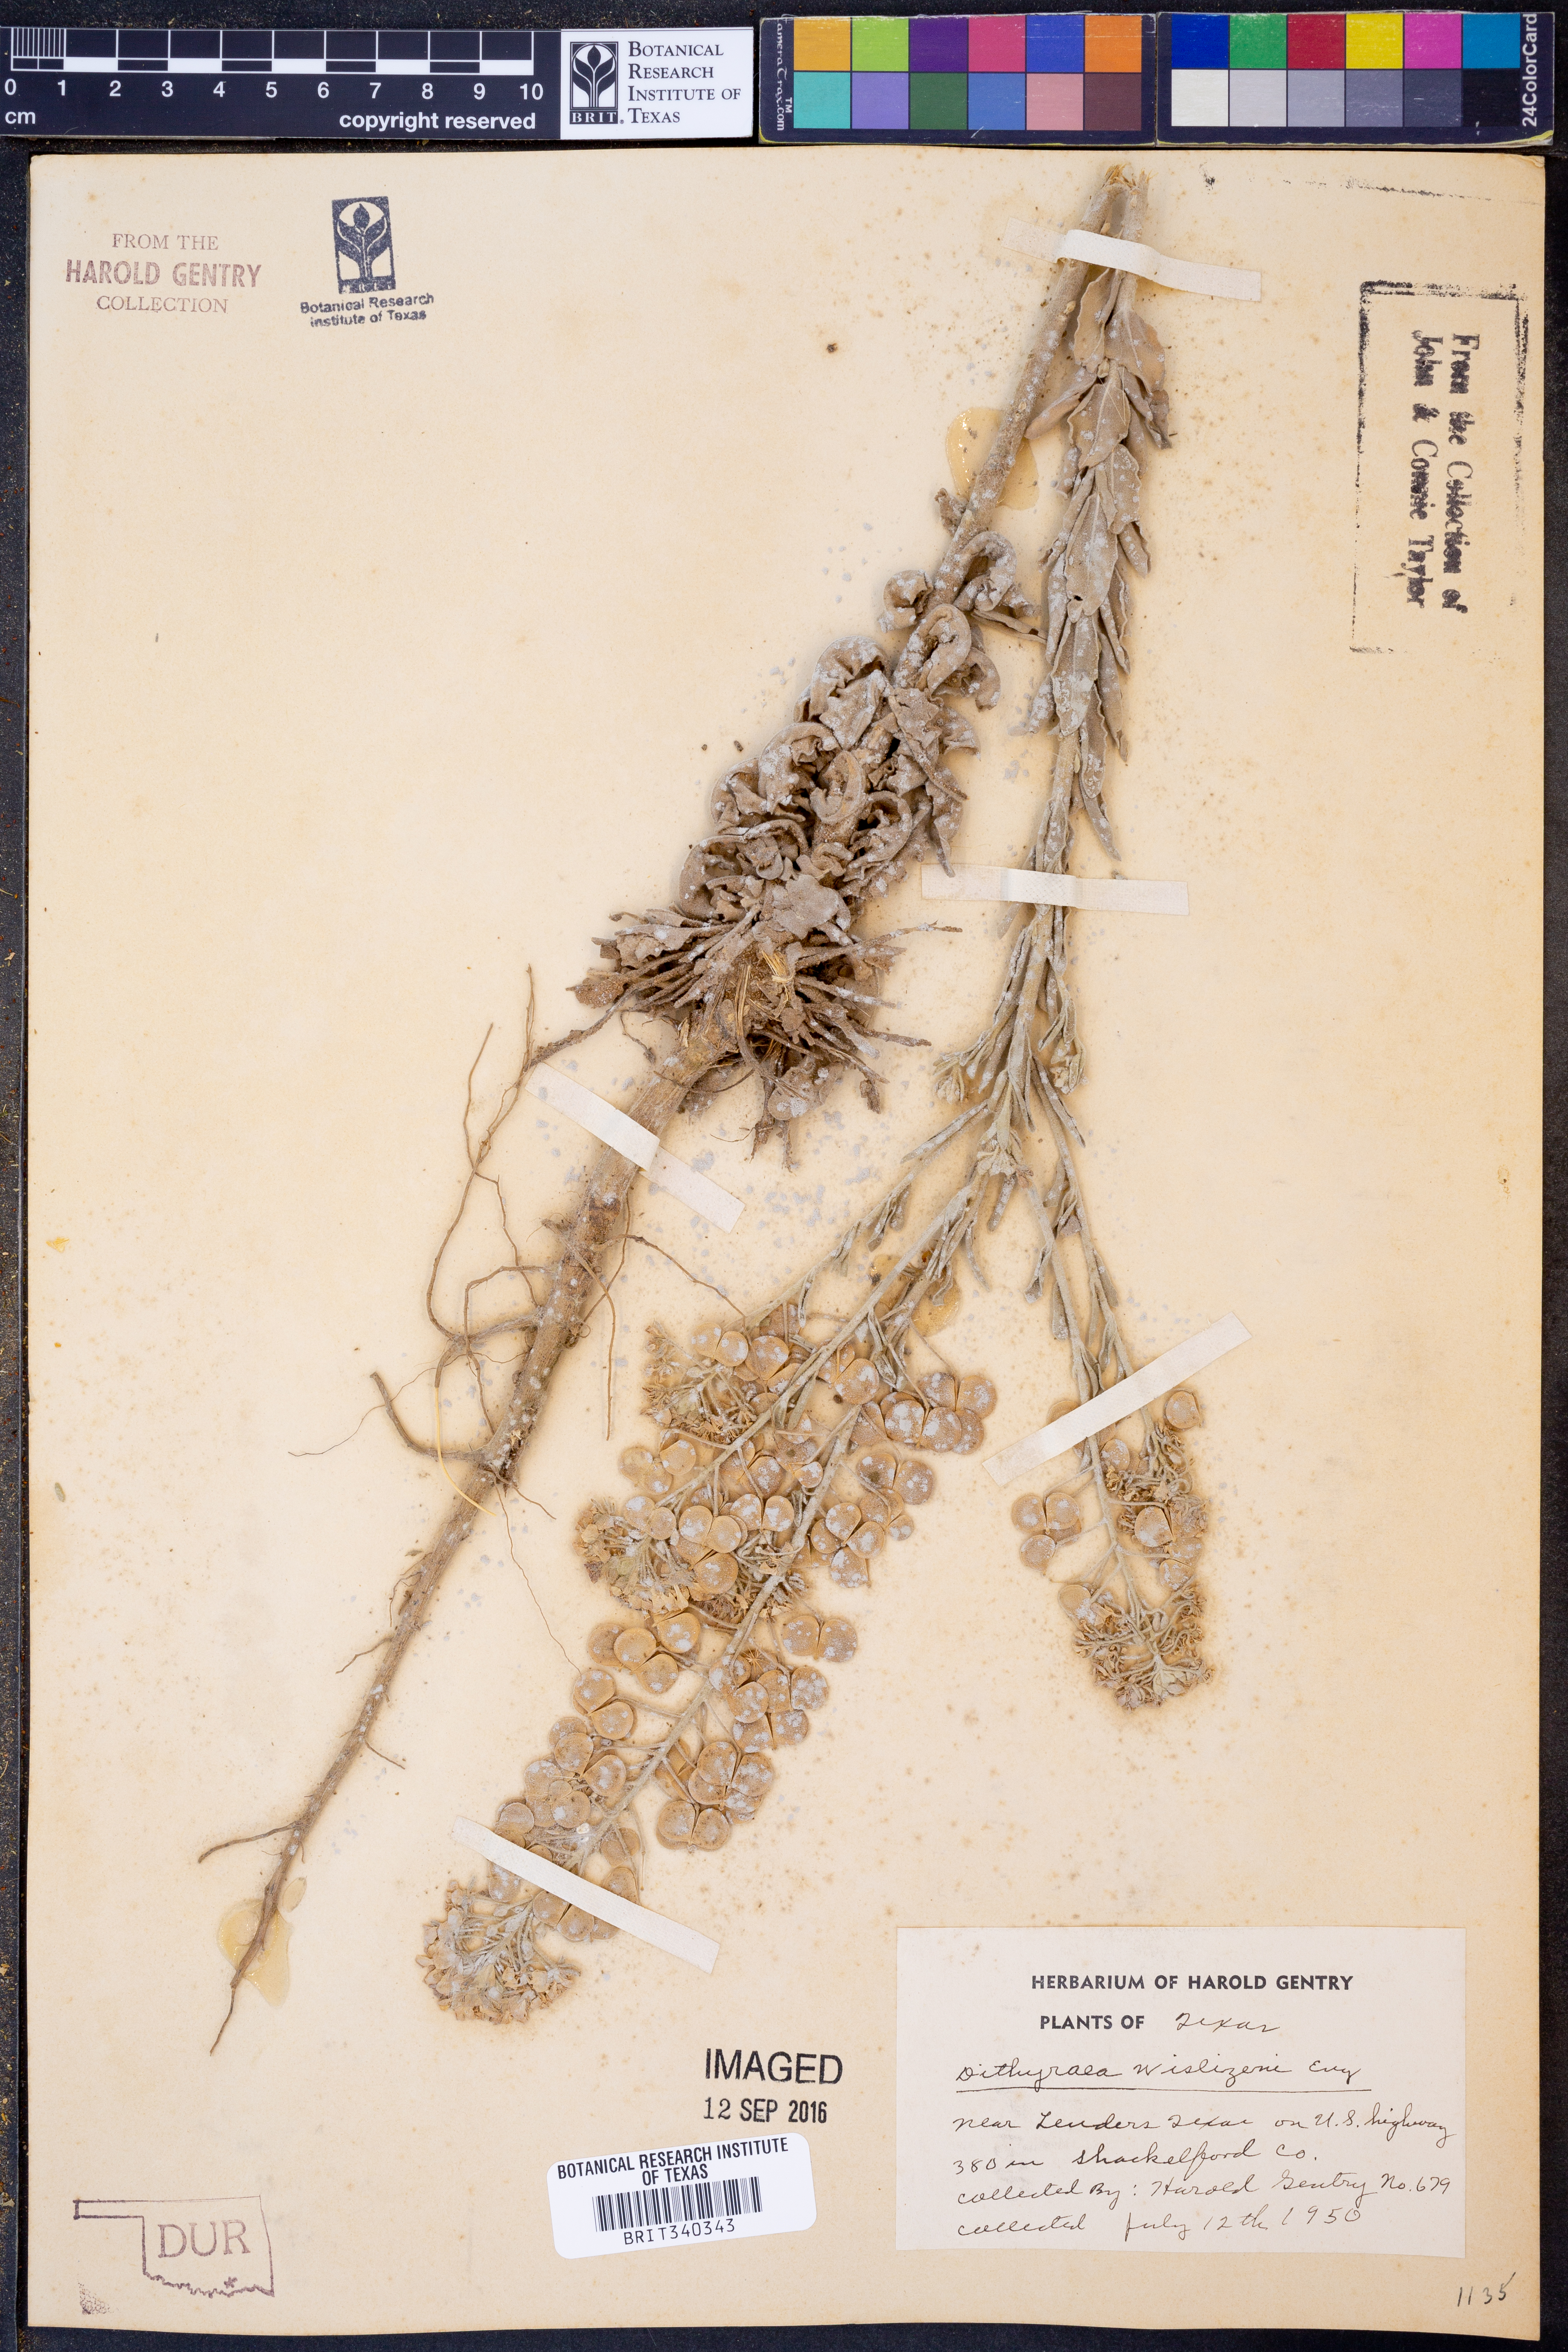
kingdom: Plantae
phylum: Tracheophyta
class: Magnoliopsida
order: Brassicales
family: Brassicaceae
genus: Dimorphocarpa
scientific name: Dimorphocarpa wislizenii
